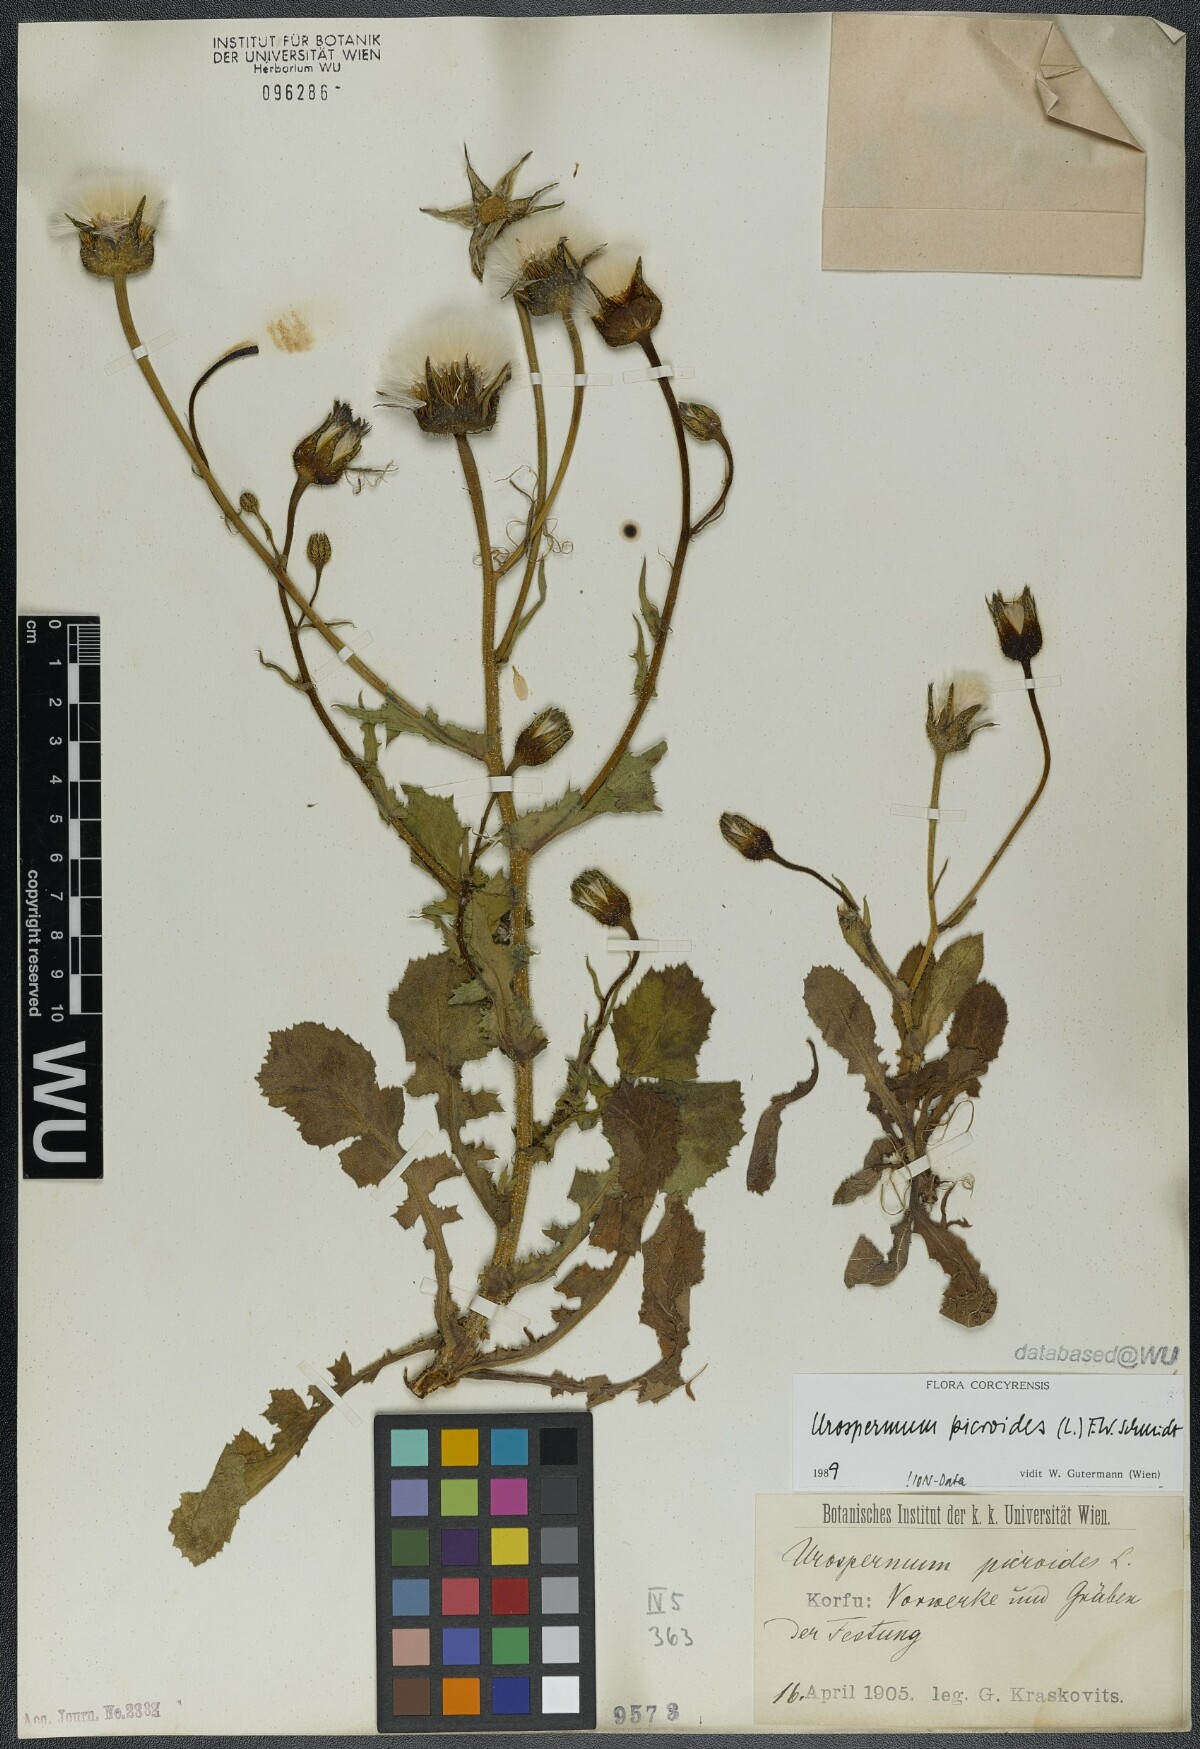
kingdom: Plantae
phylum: Tracheophyta
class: Magnoliopsida
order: Asterales
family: Asteraceae
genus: Urospermum
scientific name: Urospermum picroides
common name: False hawkbit
